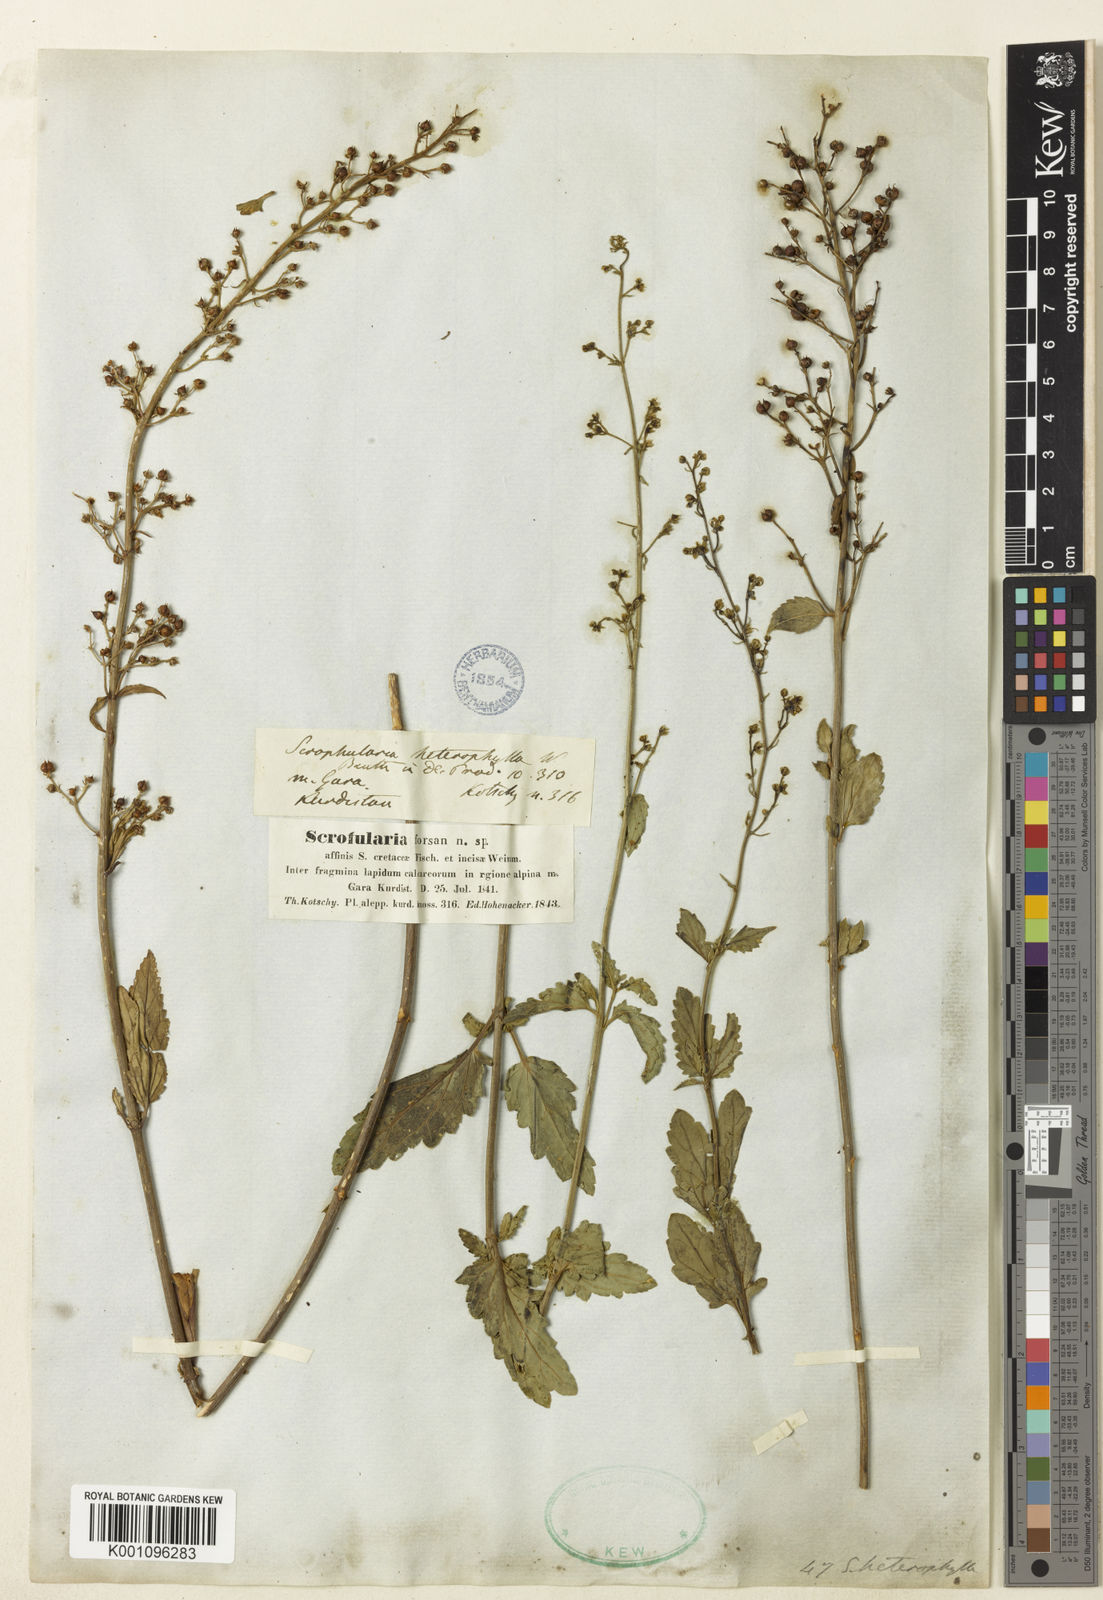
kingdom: Plantae
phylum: Tracheophyta
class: Magnoliopsida
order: Lamiales
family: Scrophulariaceae
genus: Scrophularia
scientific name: Scrophularia heterophylla
